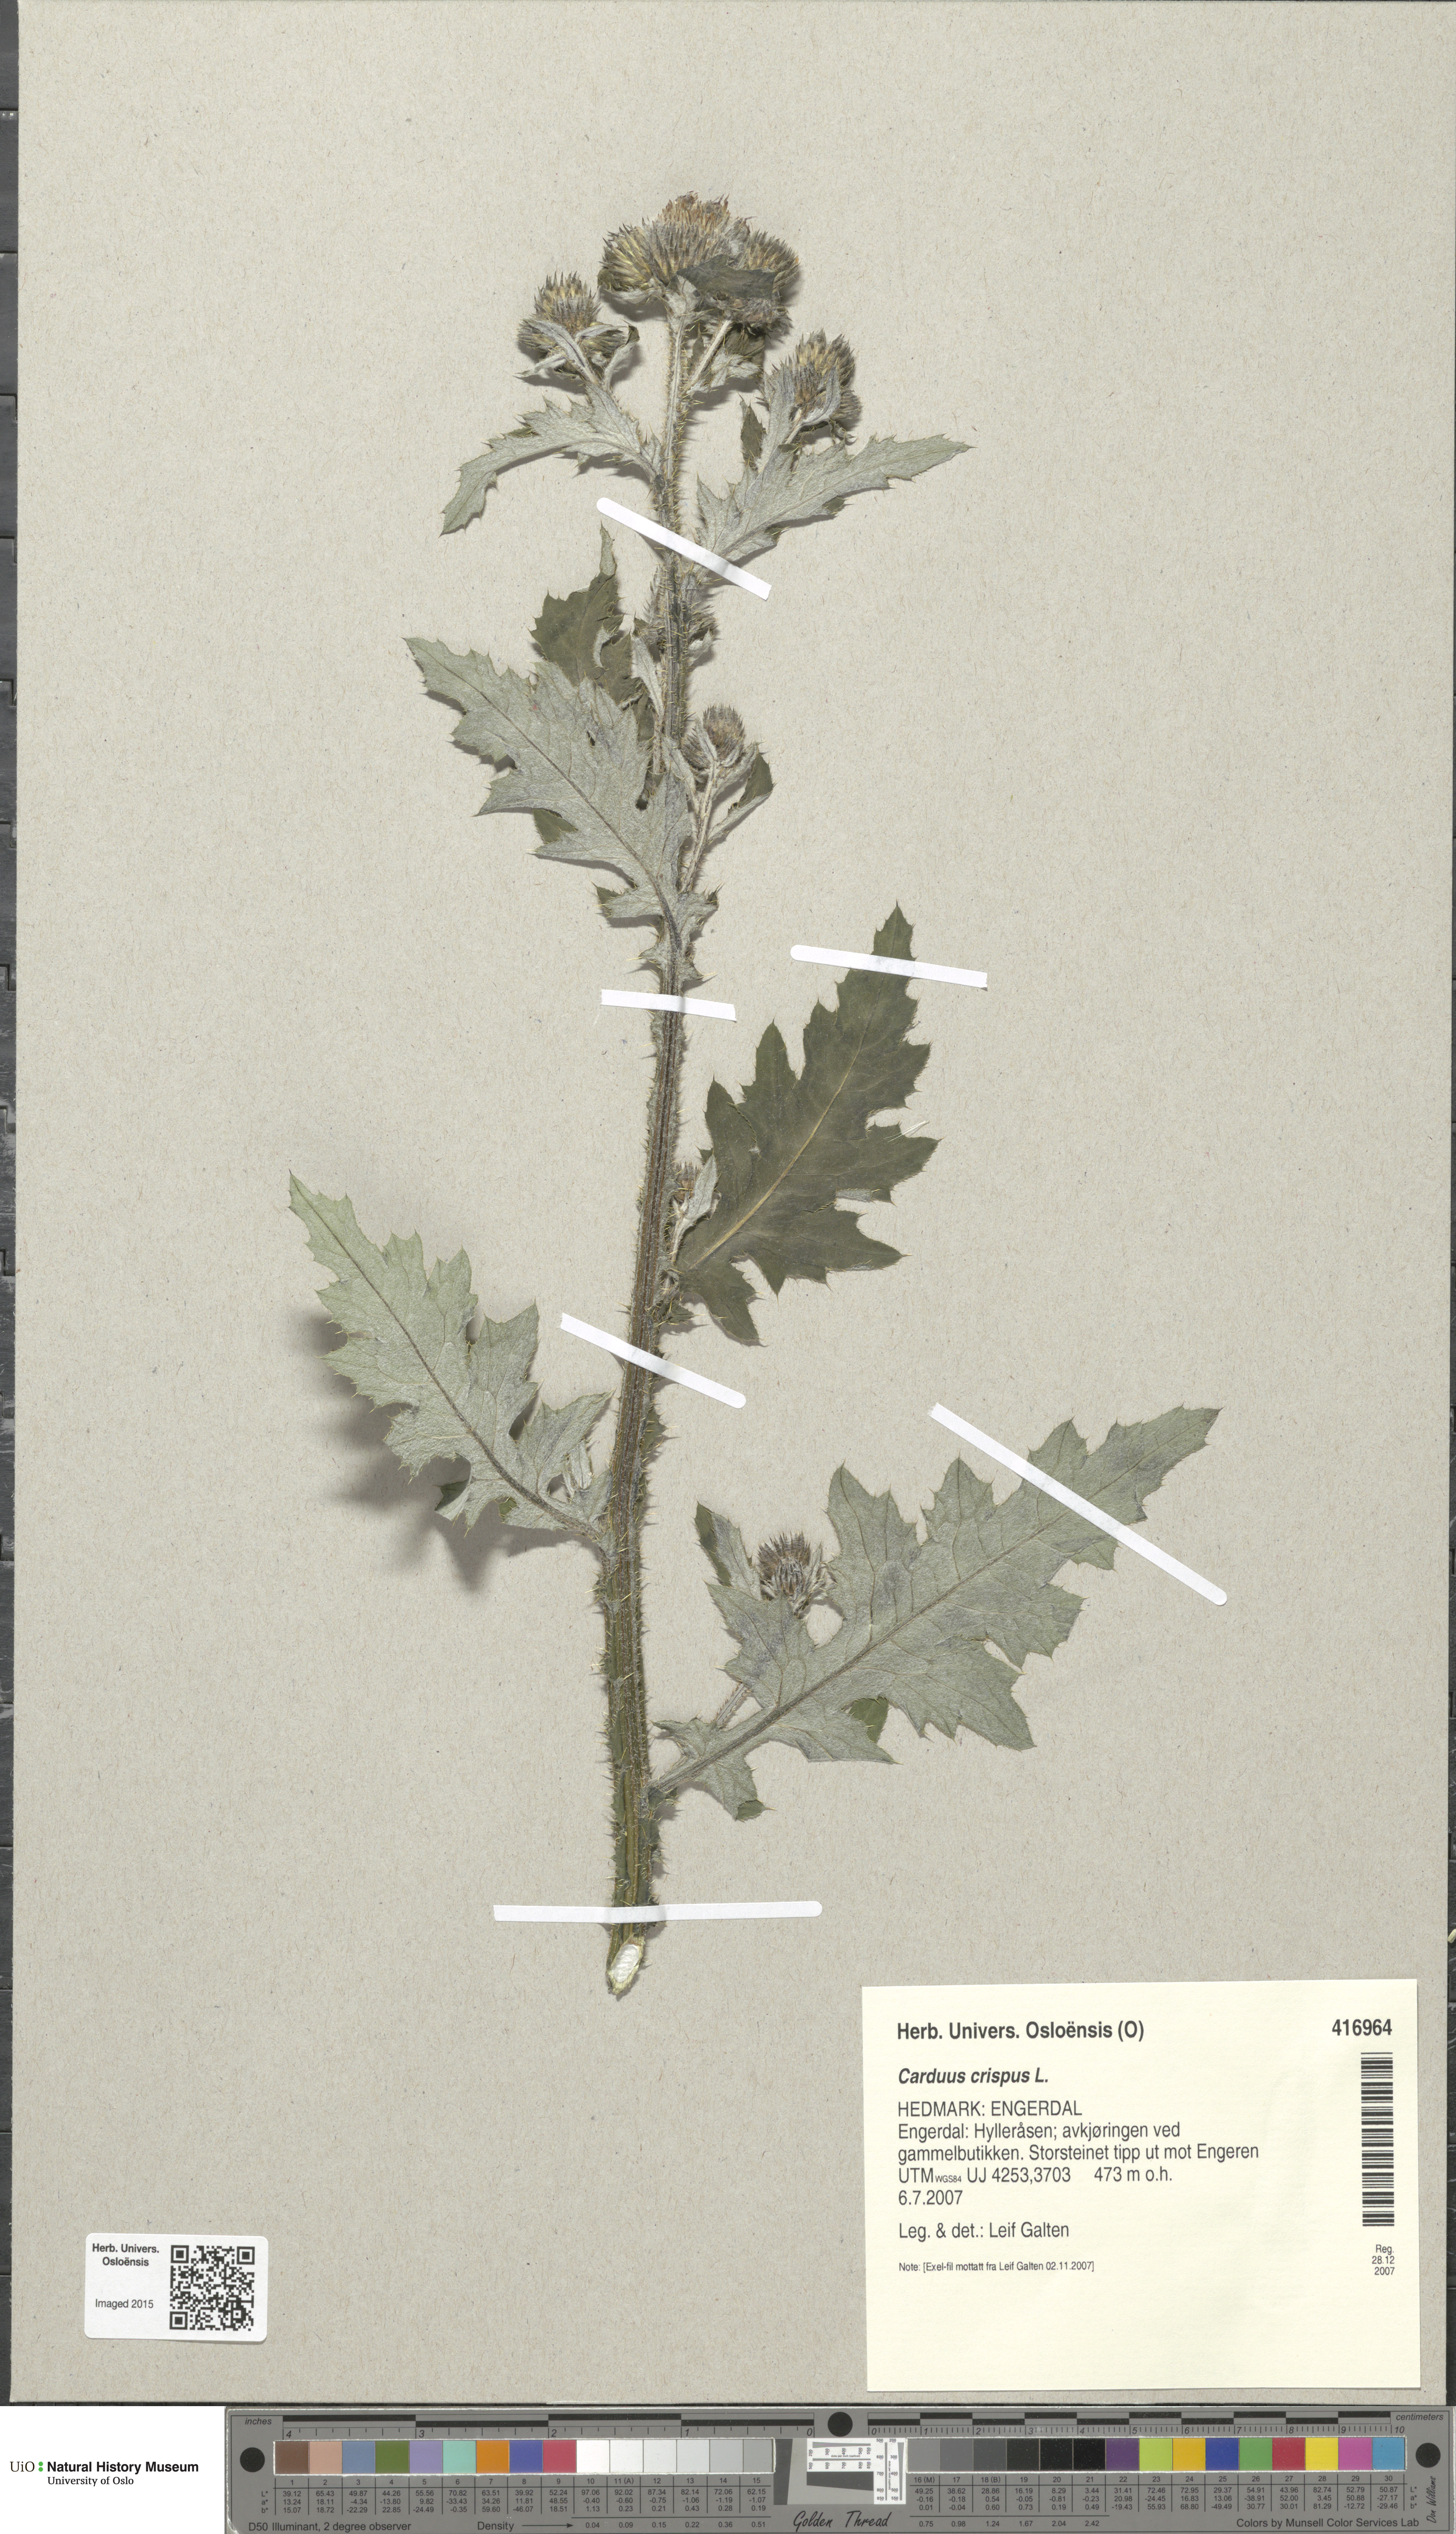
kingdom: Plantae
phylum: Tracheophyta
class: Magnoliopsida
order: Asterales
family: Asteraceae
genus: Carduus
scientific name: Carduus crispus
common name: Welted thistle
